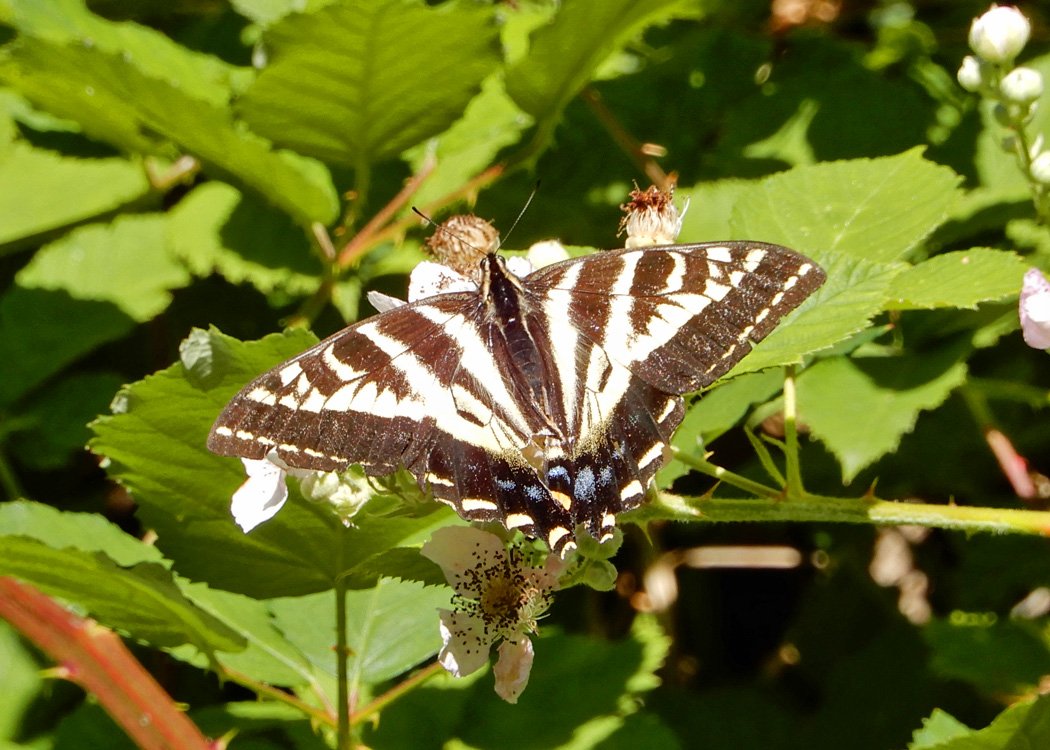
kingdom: Animalia
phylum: Arthropoda
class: Insecta
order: Lepidoptera
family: Papilionidae
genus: Pterourus
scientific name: Pterourus rutulus
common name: Western Tiger Swallowtail
